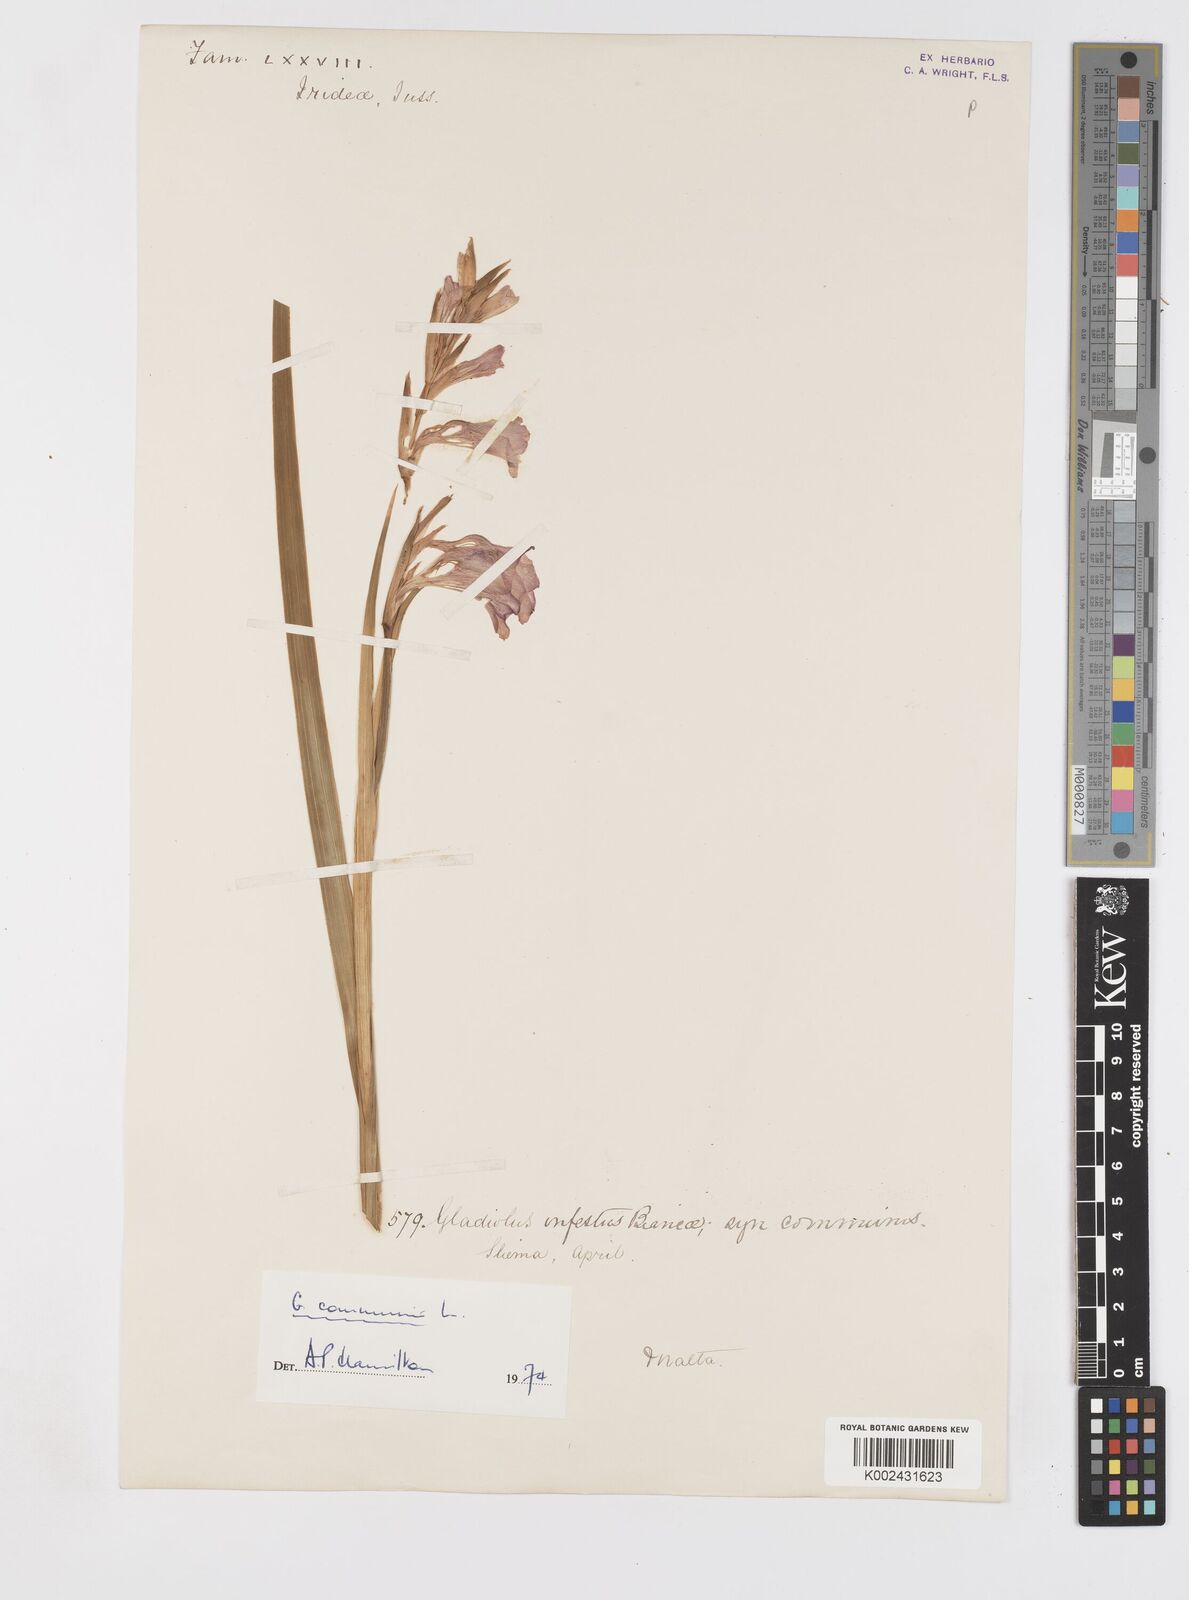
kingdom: Plantae
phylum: Tracheophyta
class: Liliopsida
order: Asparagales
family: Iridaceae
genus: Gladiolus
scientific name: Gladiolus communis
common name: Eastern gladiolus
